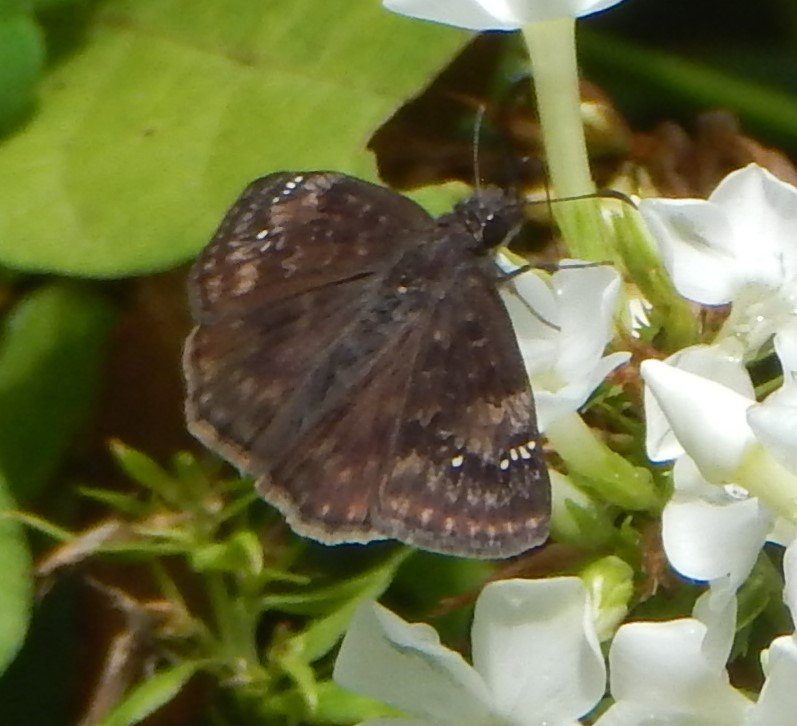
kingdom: Animalia
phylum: Arthropoda
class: Insecta
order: Lepidoptera
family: Hesperiidae
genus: Gesta
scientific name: Gesta
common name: Wild Indigo Duskywing
